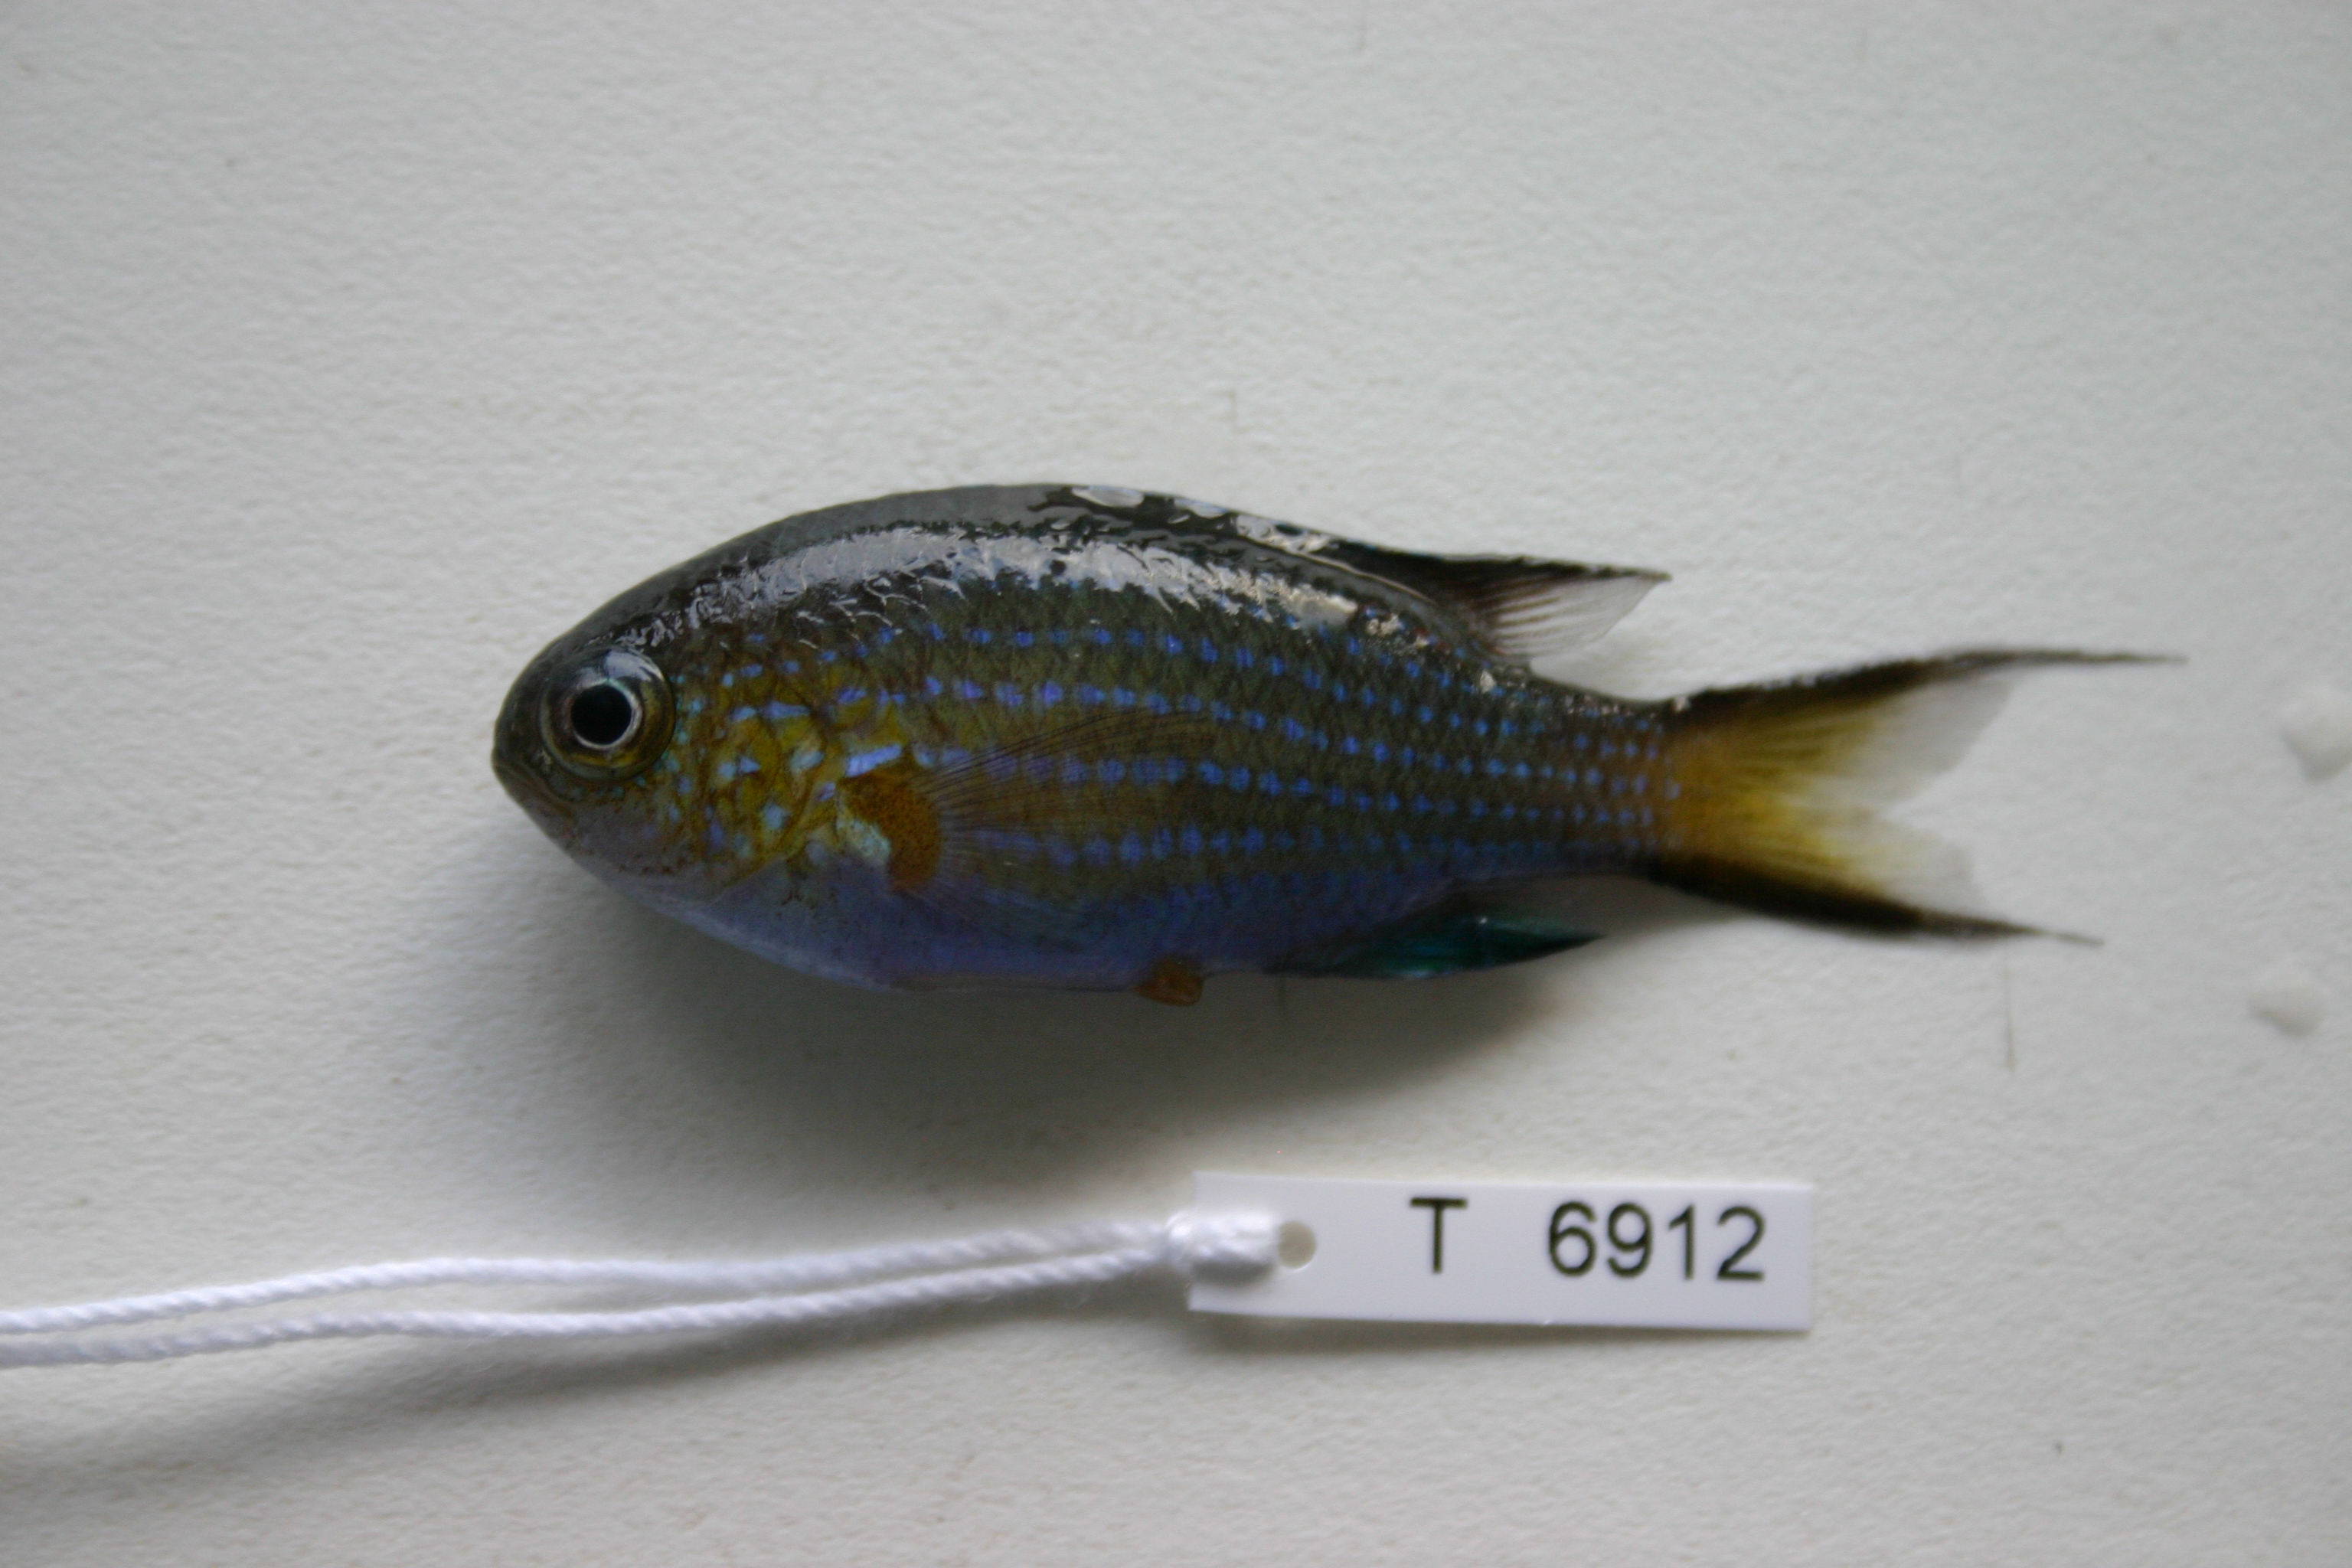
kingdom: Animalia
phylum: Chordata
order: Perciformes
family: Pomacentridae
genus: Chromis
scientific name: Chromis nigrura
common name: Blacktail chromis
